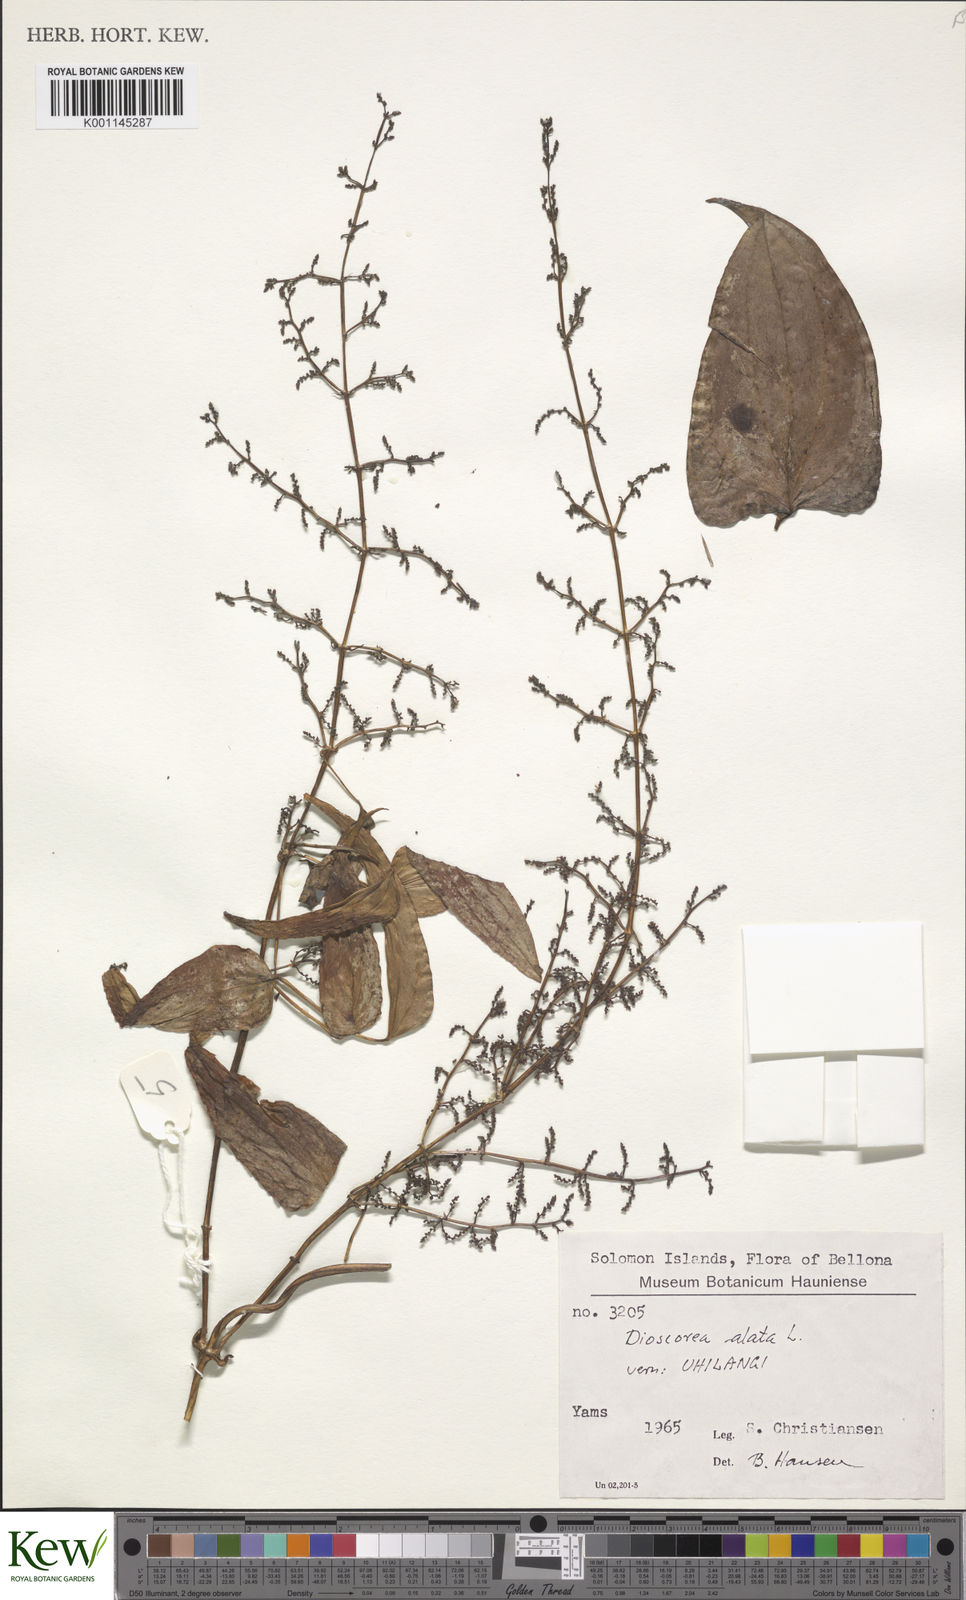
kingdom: Plantae
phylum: Tracheophyta
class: Liliopsida
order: Dioscoreales
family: Dioscoreaceae
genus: Dioscorea
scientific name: Dioscorea alata
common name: Water yam
